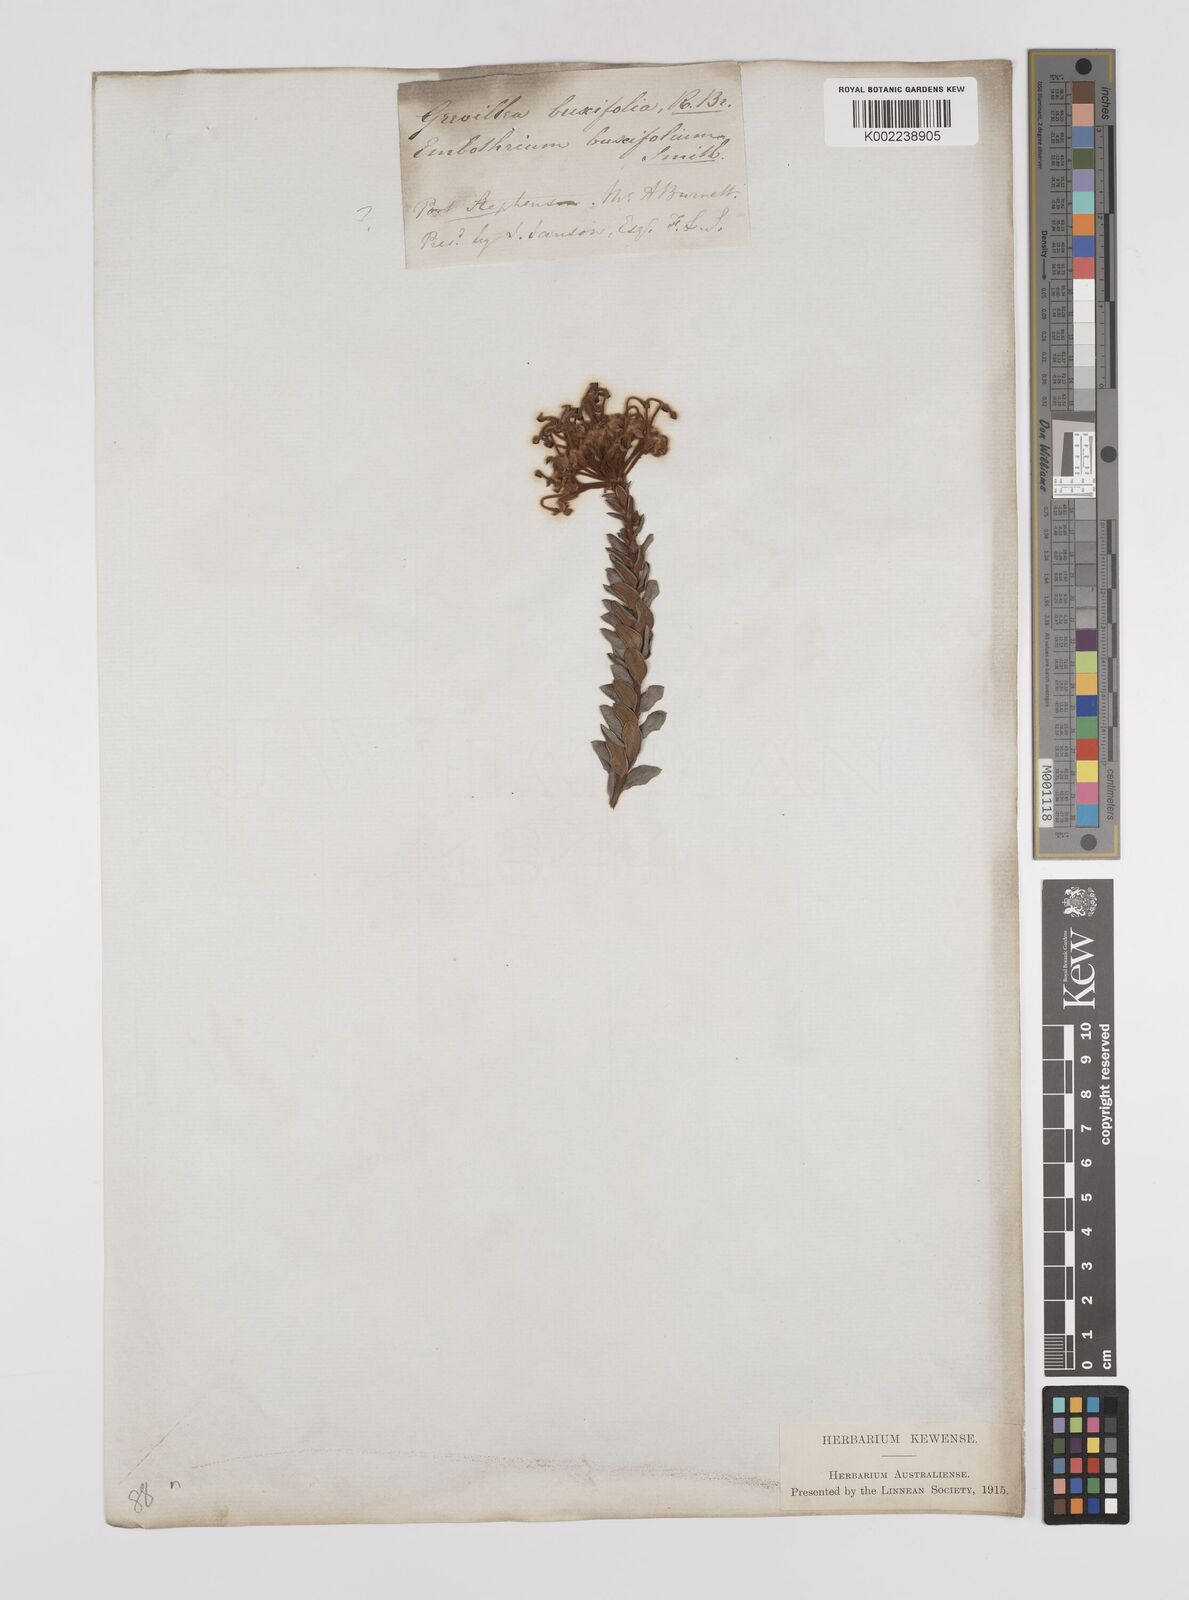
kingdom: Plantae
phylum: Tracheophyta
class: Magnoliopsida
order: Proteales
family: Proteaceae
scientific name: Proteaceae
